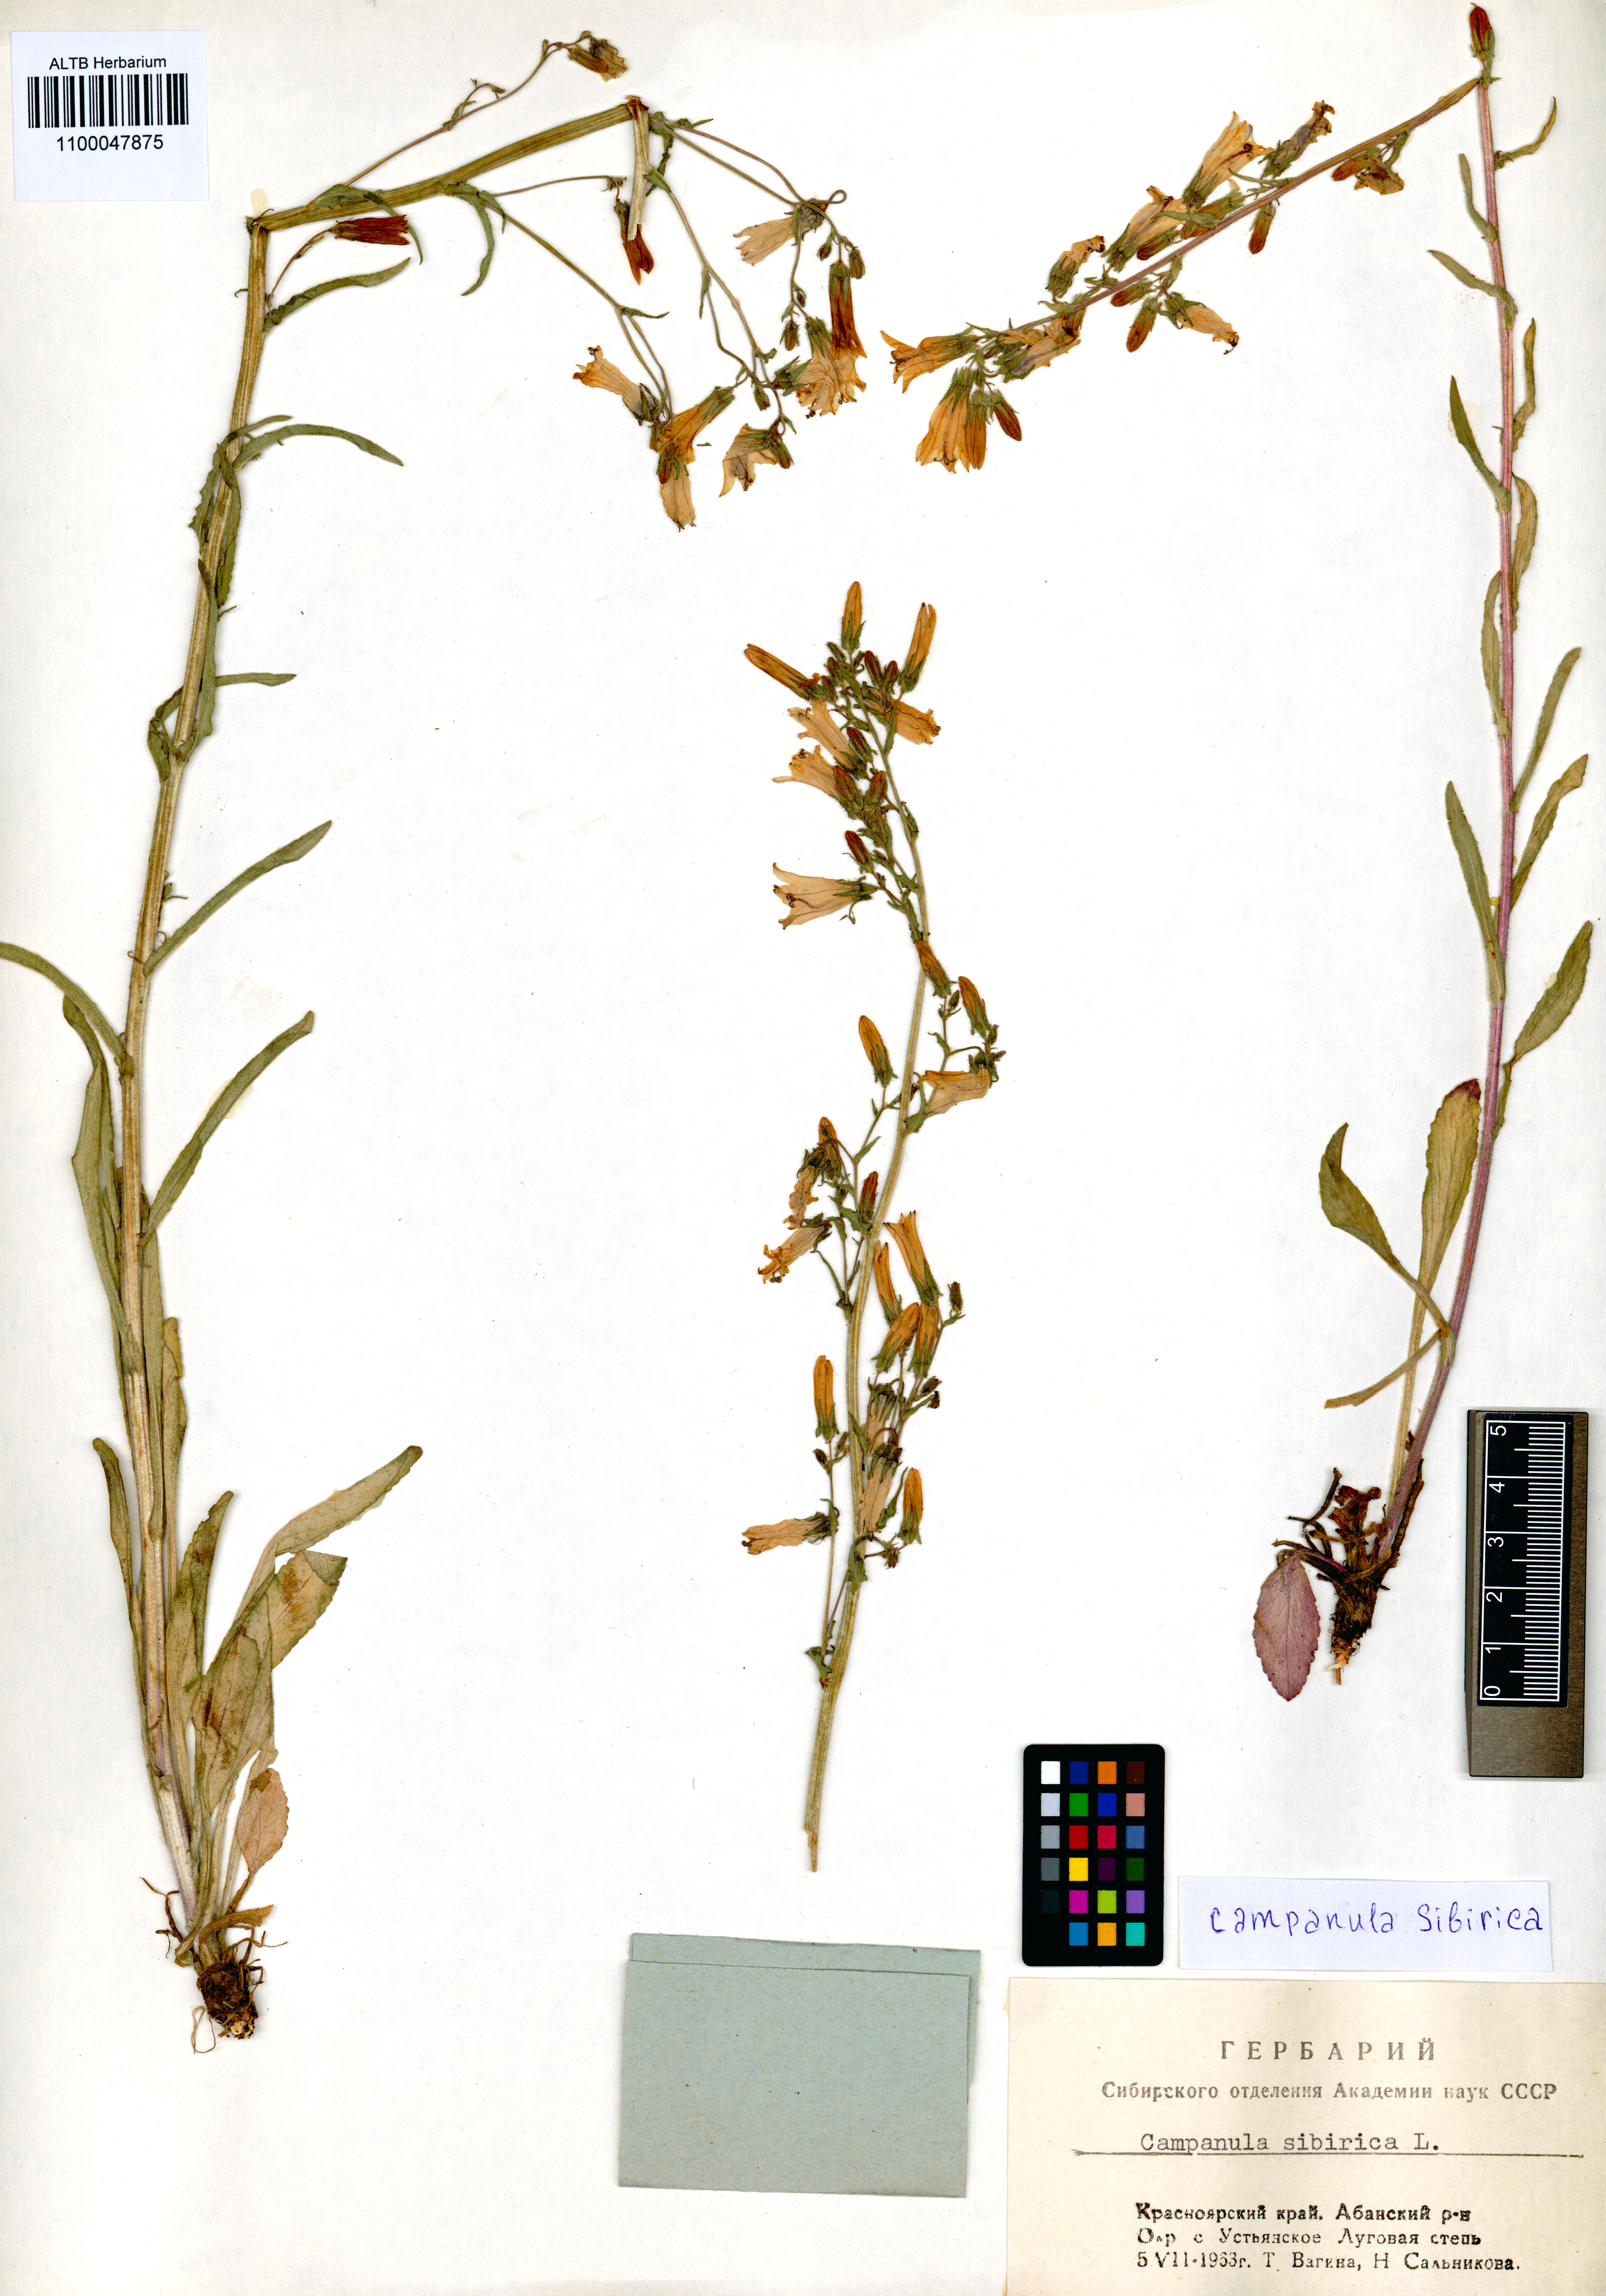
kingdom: Plantae
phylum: Tracheophyta
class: Magnoliopsida
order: Asterales
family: Campanulaceae
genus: Campanula
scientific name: Campanula sibirica
